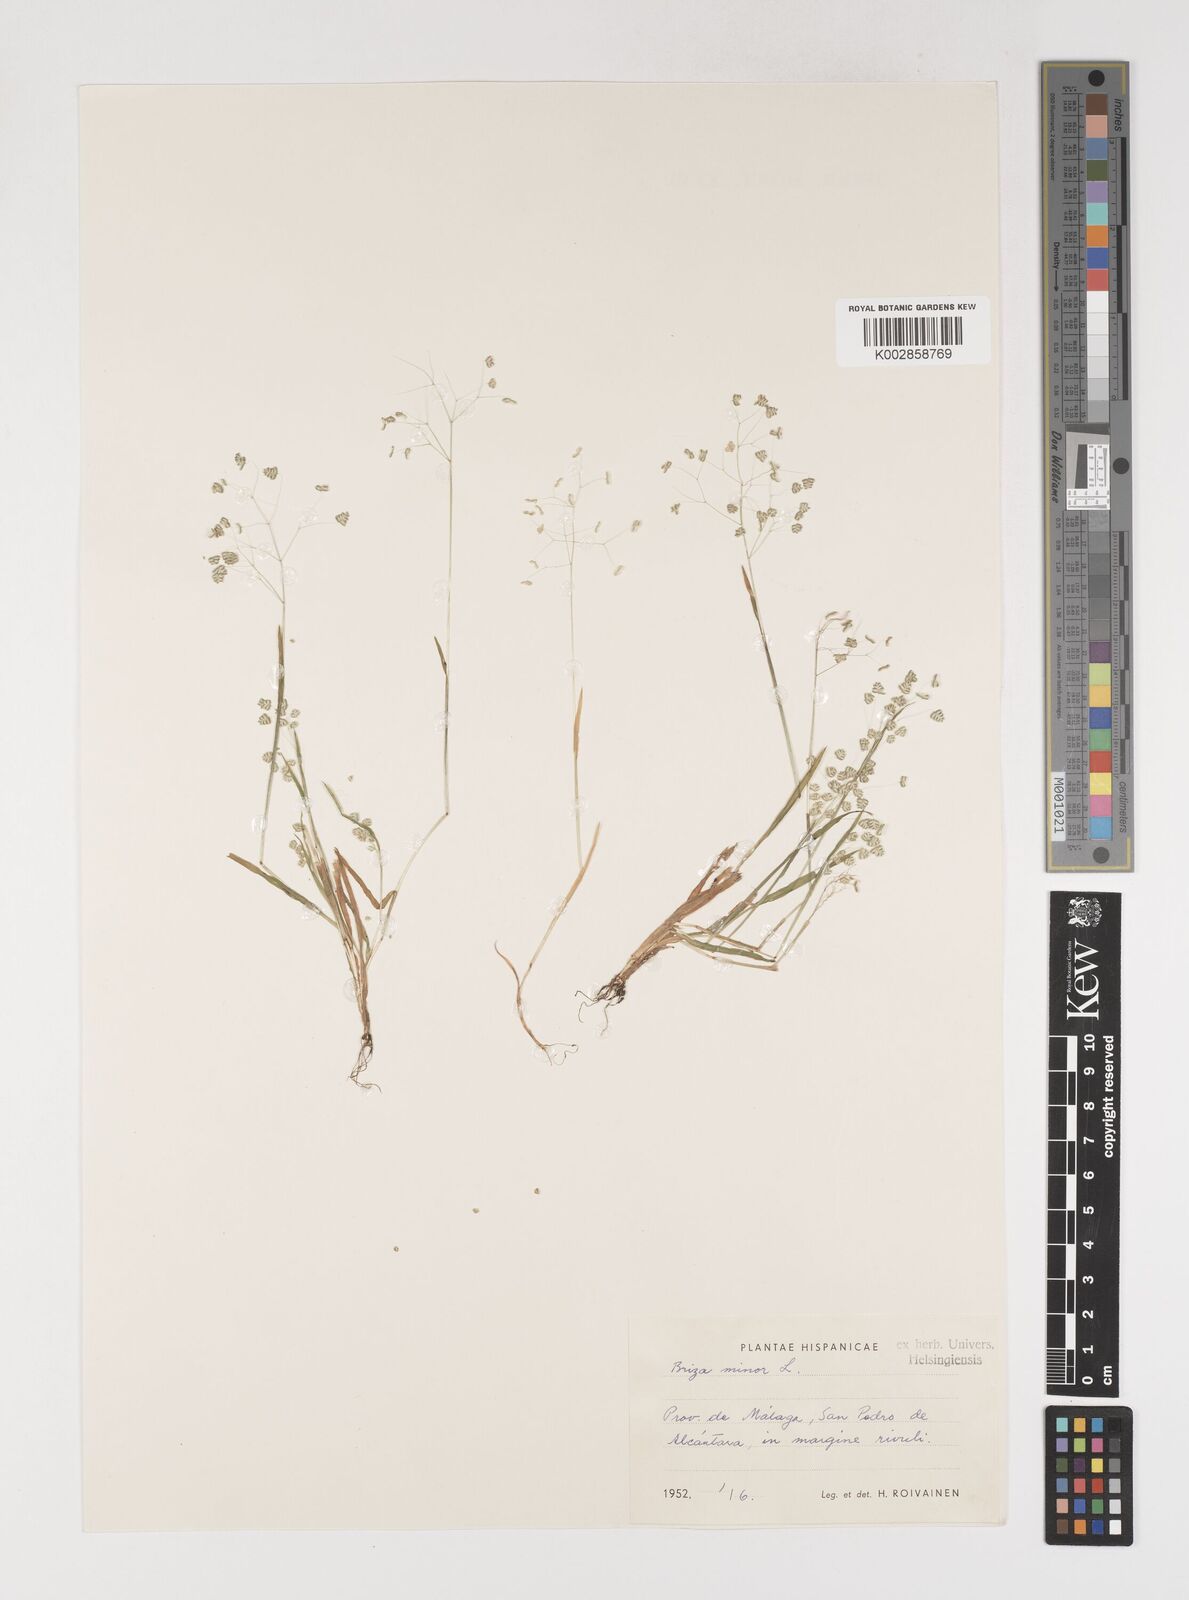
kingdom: Plantae
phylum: Tracheophyta
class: Liliopsida
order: Poales
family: Poaceae
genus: Briza
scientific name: Briza minor
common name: Lesser quaking-grass
